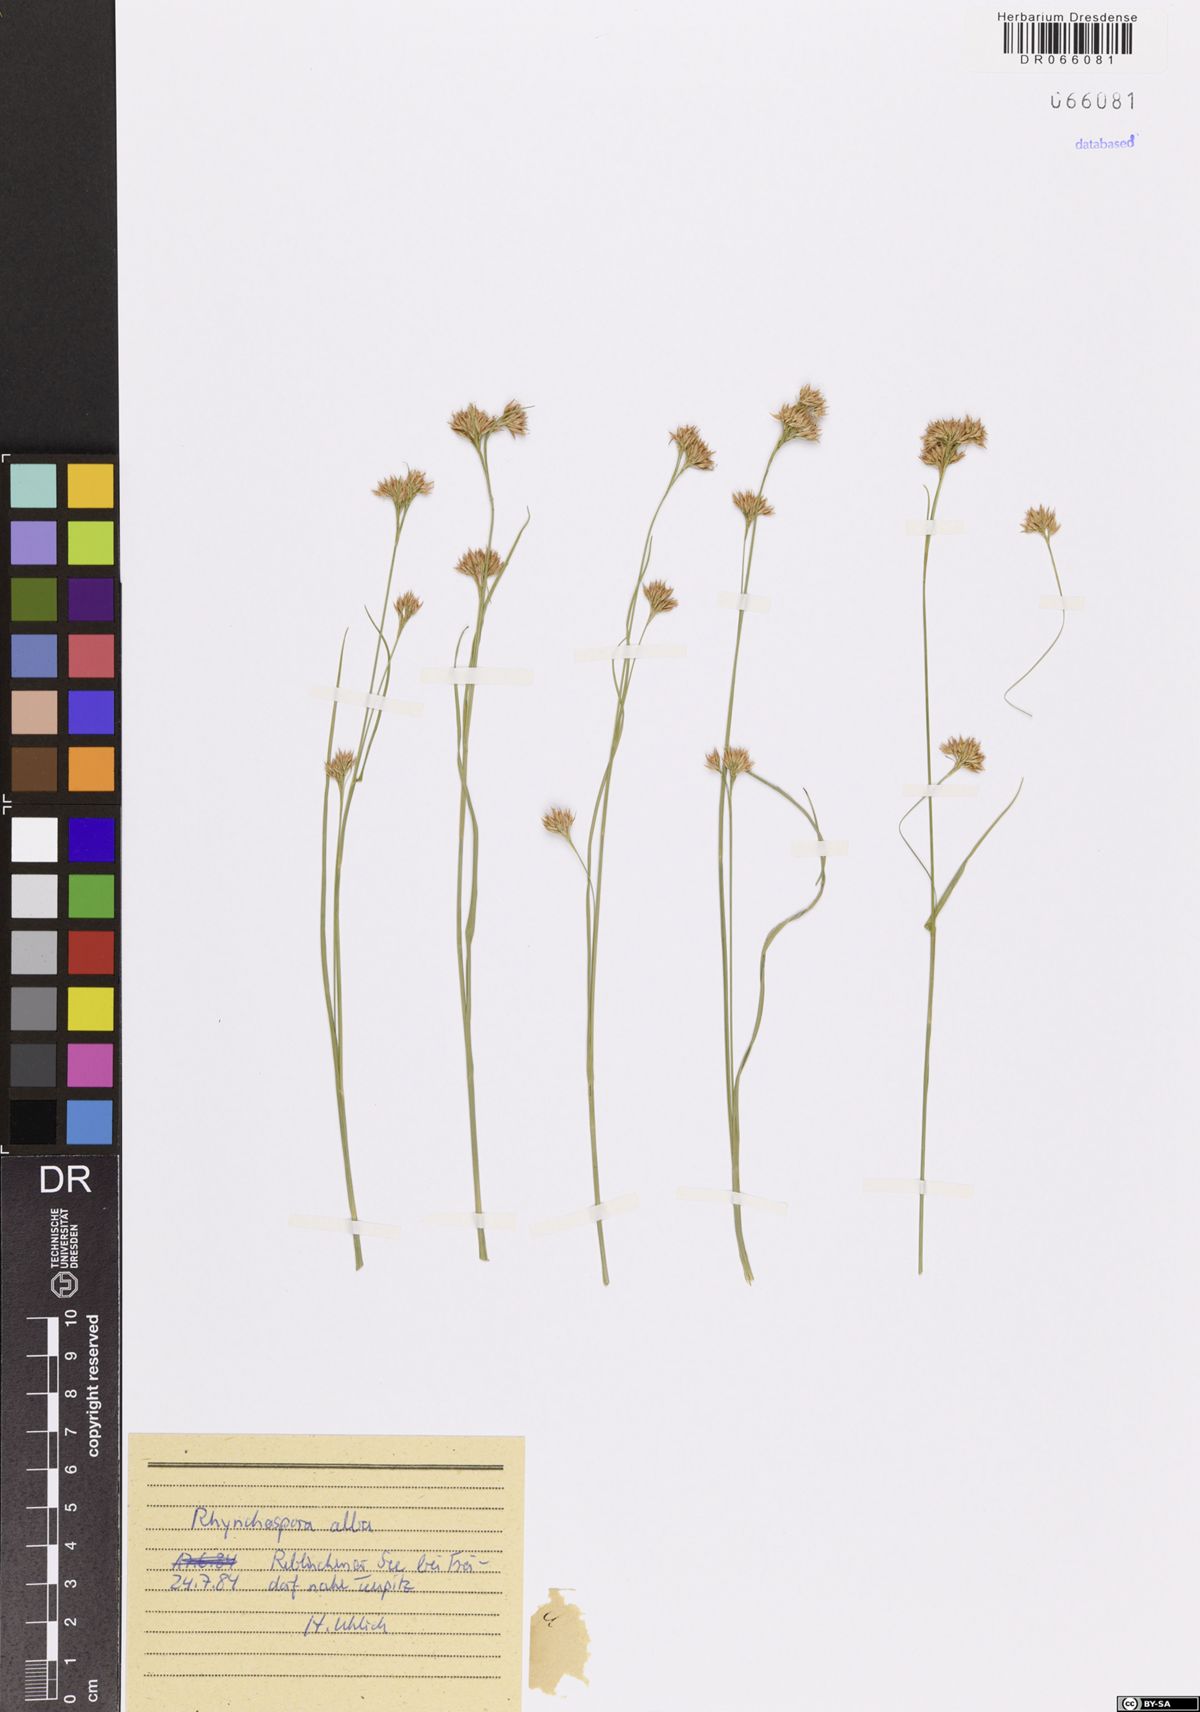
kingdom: Plantae
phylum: Tracheophyta
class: Liliopsida
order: Poales
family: Cyperaceae
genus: Rhynchospora
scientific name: Rhynchospora alba
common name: White beak-sedge
